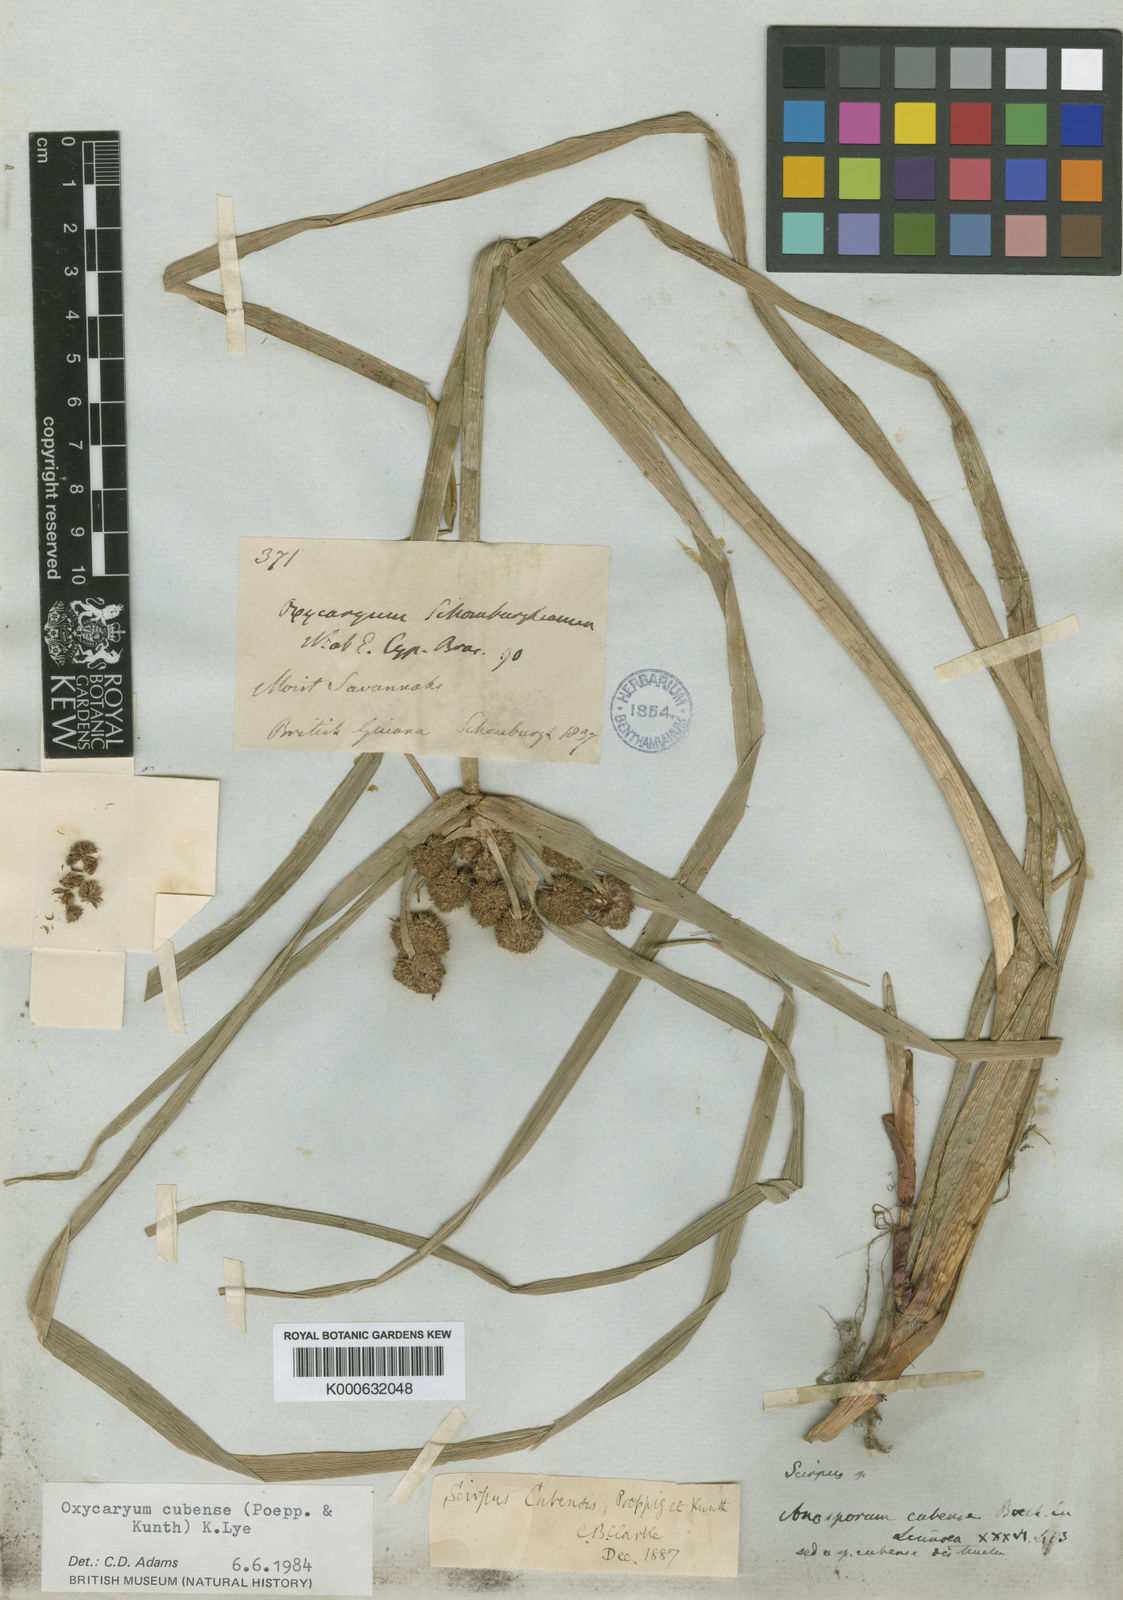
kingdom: Plantae
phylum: Tracheophyta
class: Liliopsida
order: Poales
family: Cyperaceae
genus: Cyperus
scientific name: Cyperus
